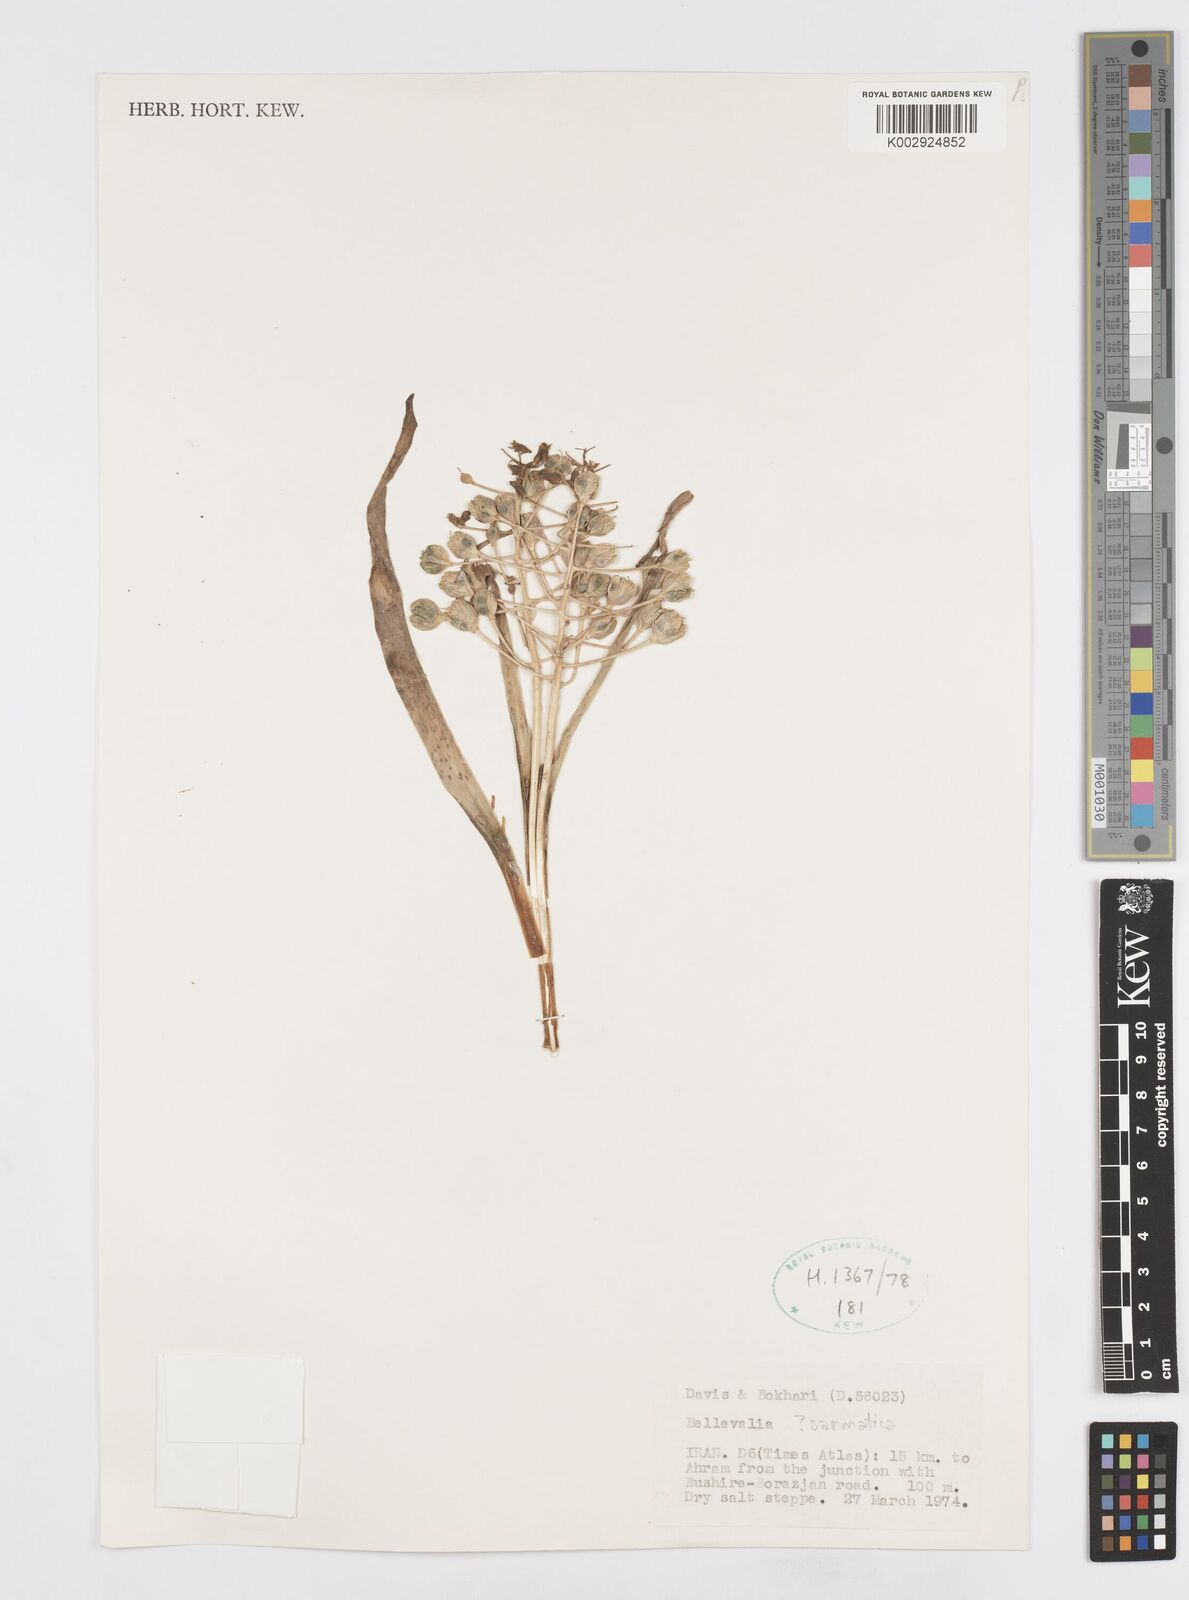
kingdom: Plantae
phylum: Tracheophyta
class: Liliopsida
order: Asparagales
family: Asparagaceae
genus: Bellevalia
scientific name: Bellevalia
